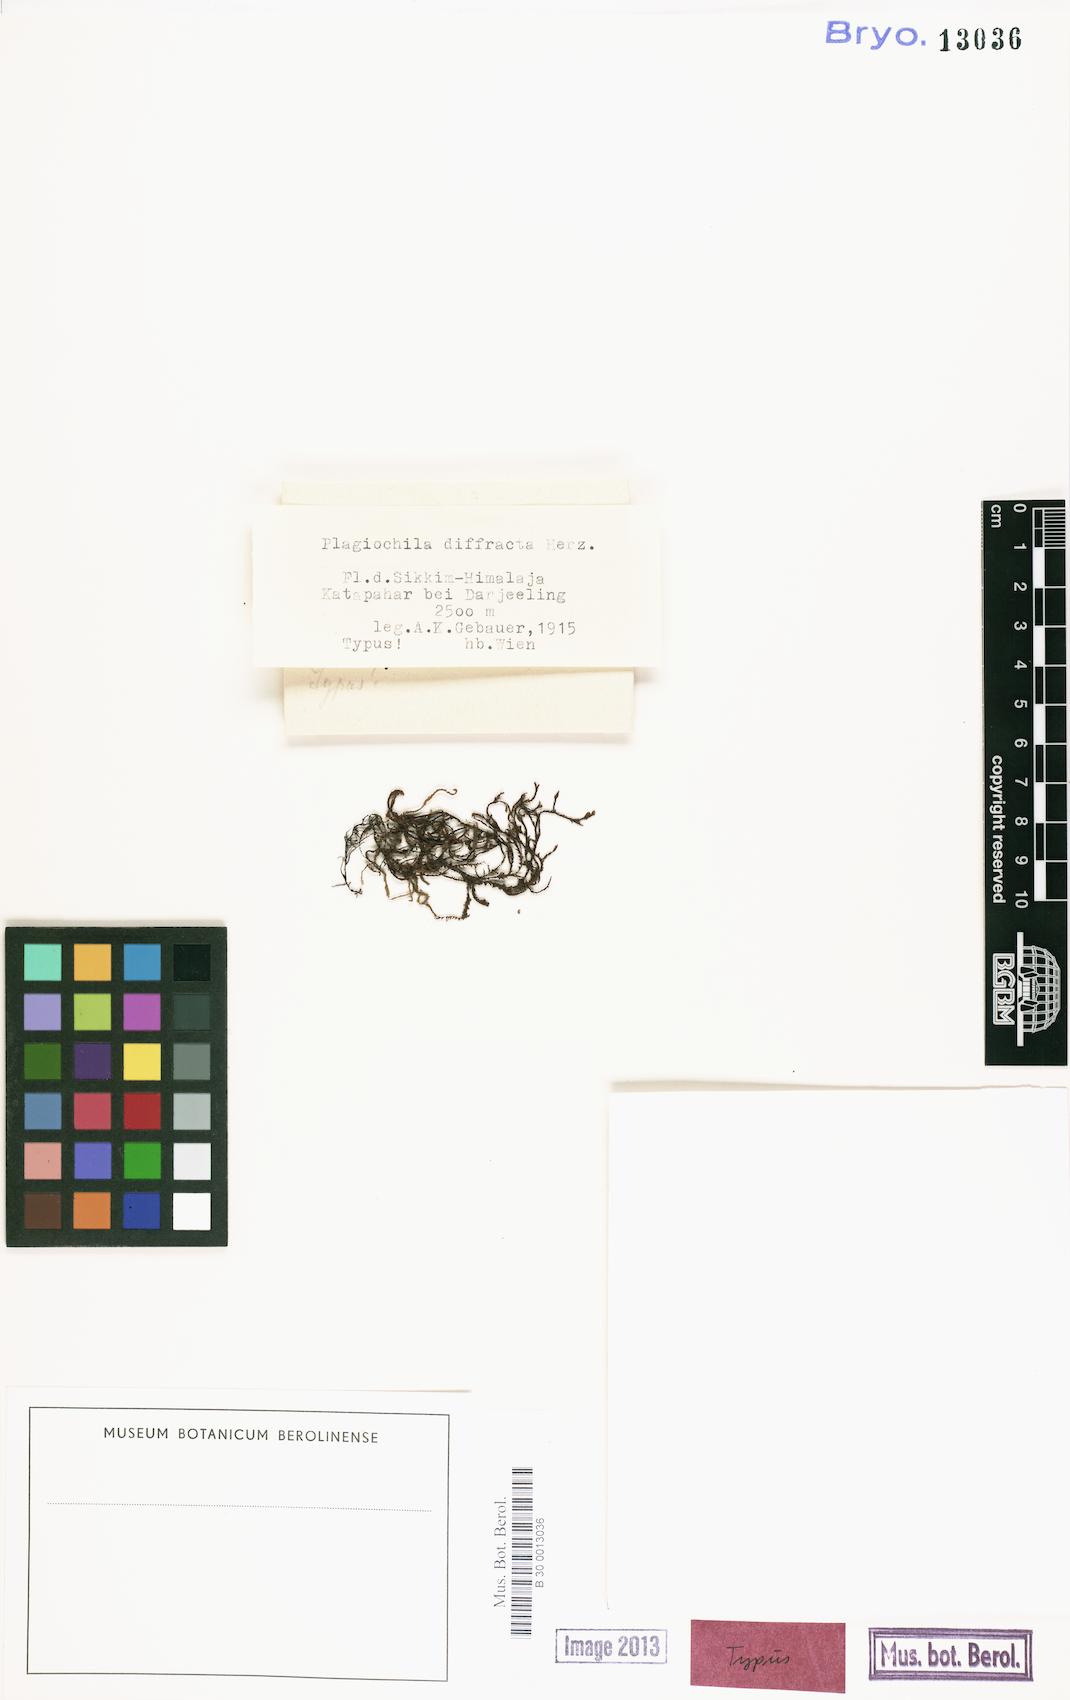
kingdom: Plantae
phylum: Marchantiophyta
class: Jungermanniopsida
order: Jungermanniales
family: Plagiochilaceae
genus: Plagiochila
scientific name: Plagiochila subtropica
